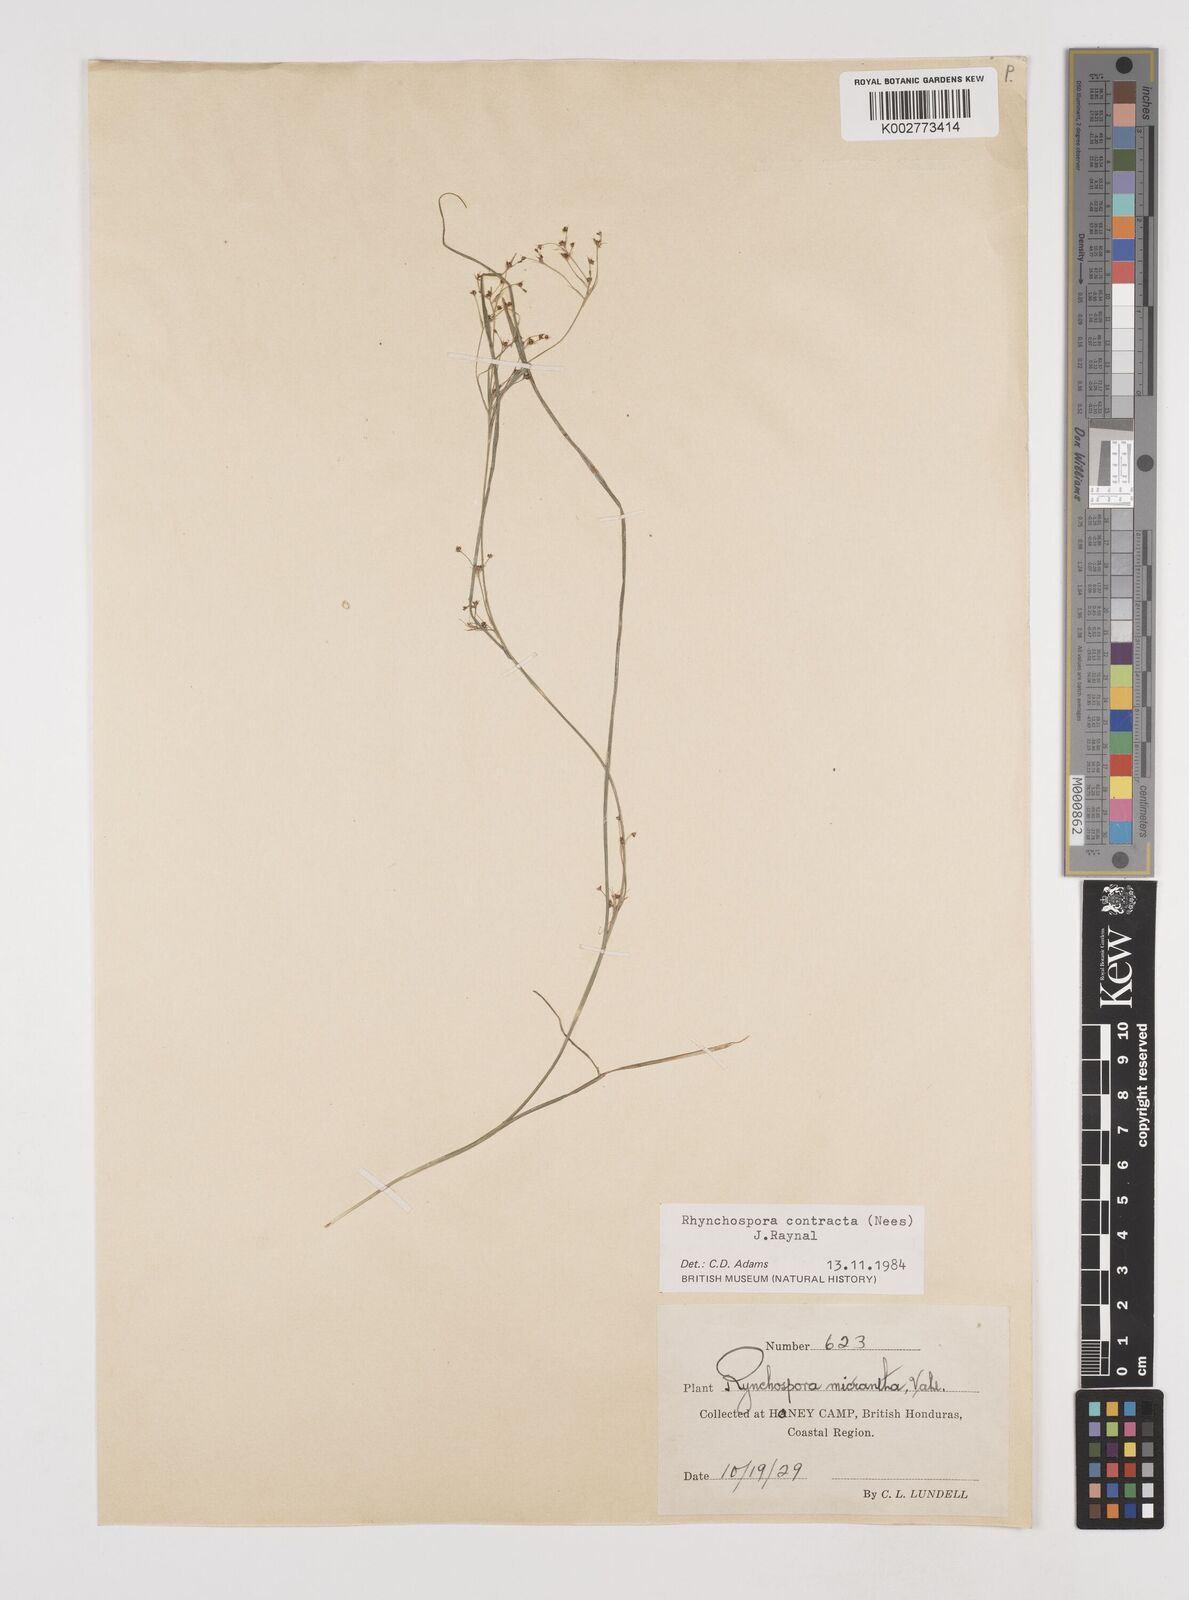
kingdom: Plantae
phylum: Tracheophyta
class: Liliopsida
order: Poales
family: Cyperaceae
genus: Rhynchospora
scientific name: Rhynchospora contracta
